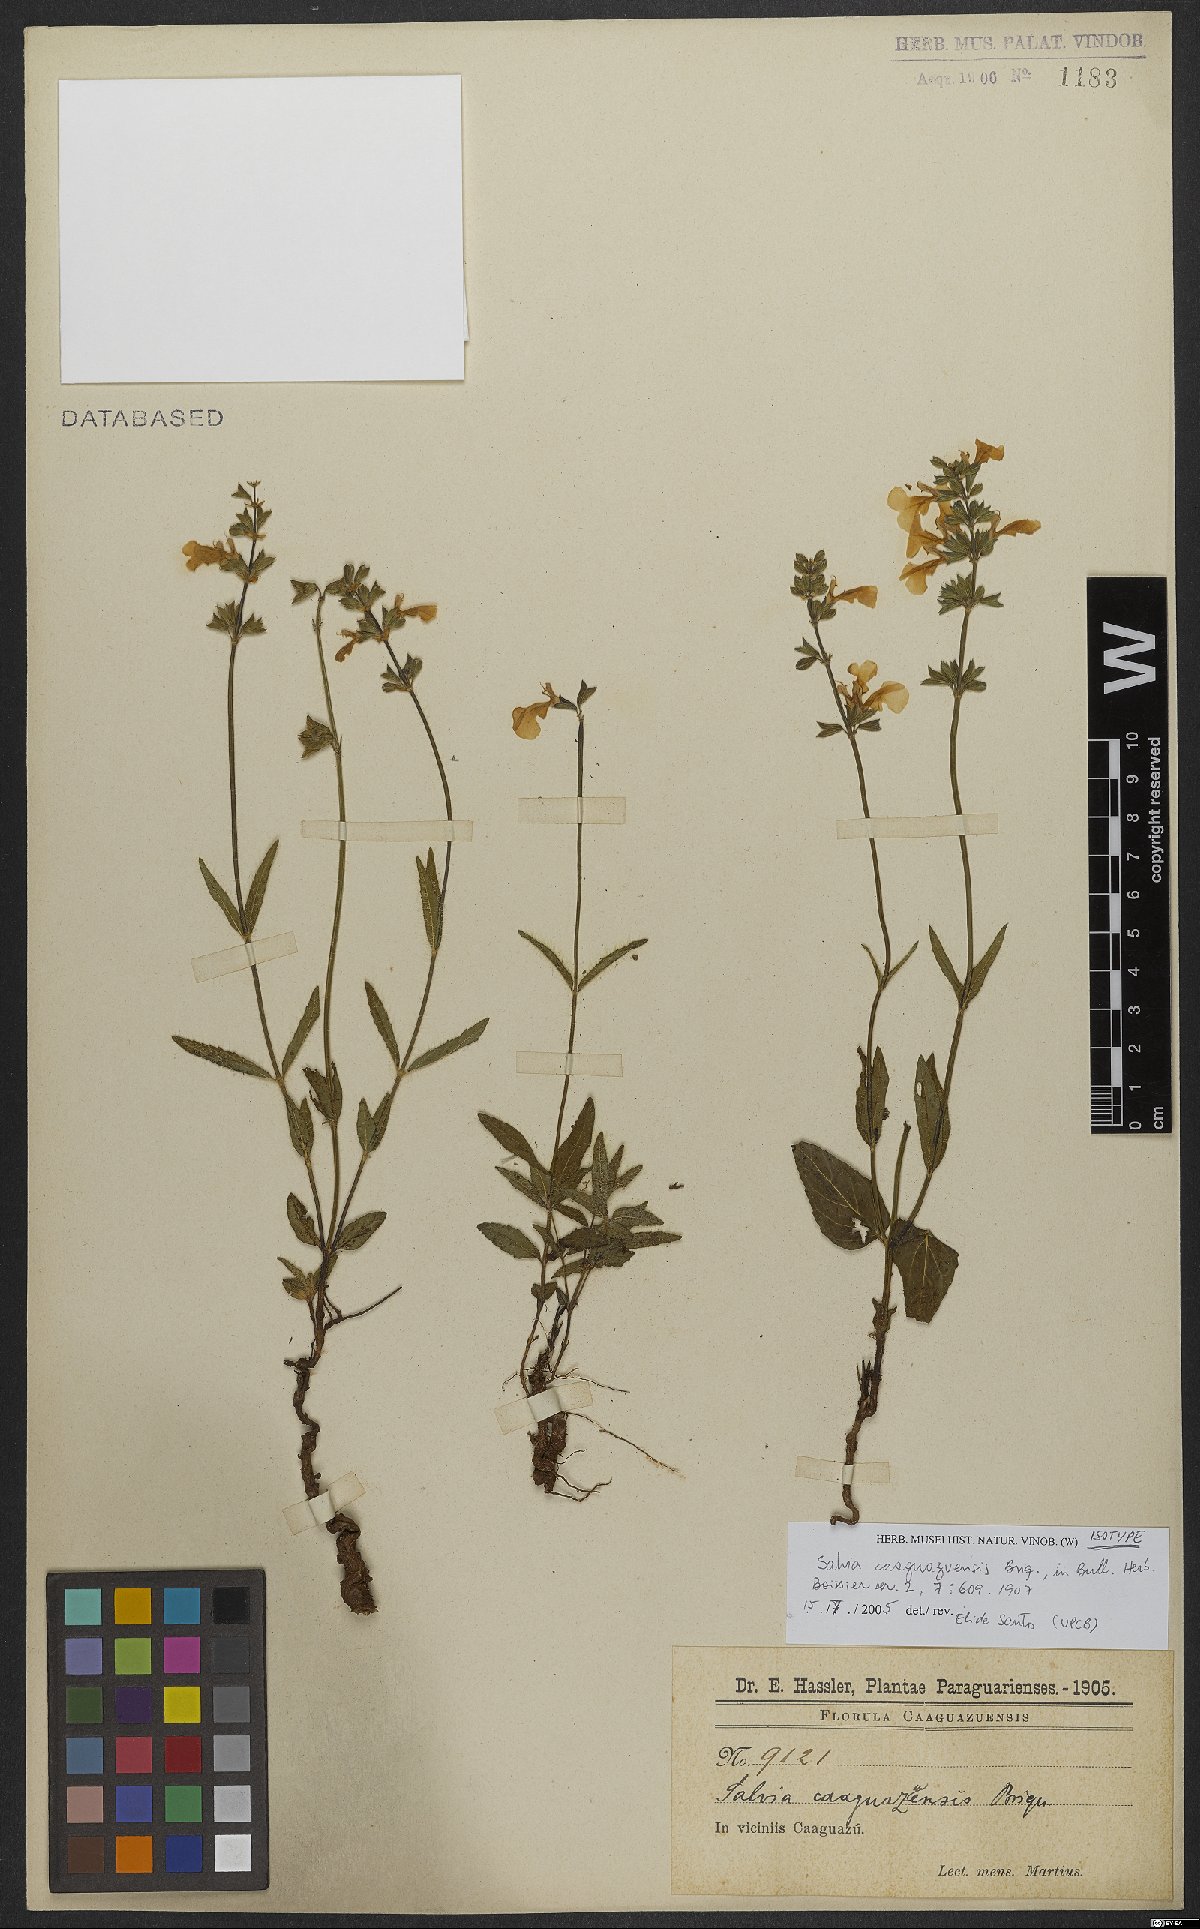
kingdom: Plantae
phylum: Tracheophyta
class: Magnoliopsida
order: Lamiales
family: Lamiaceae
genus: Salvia
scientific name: Salvia caaguazuensis
